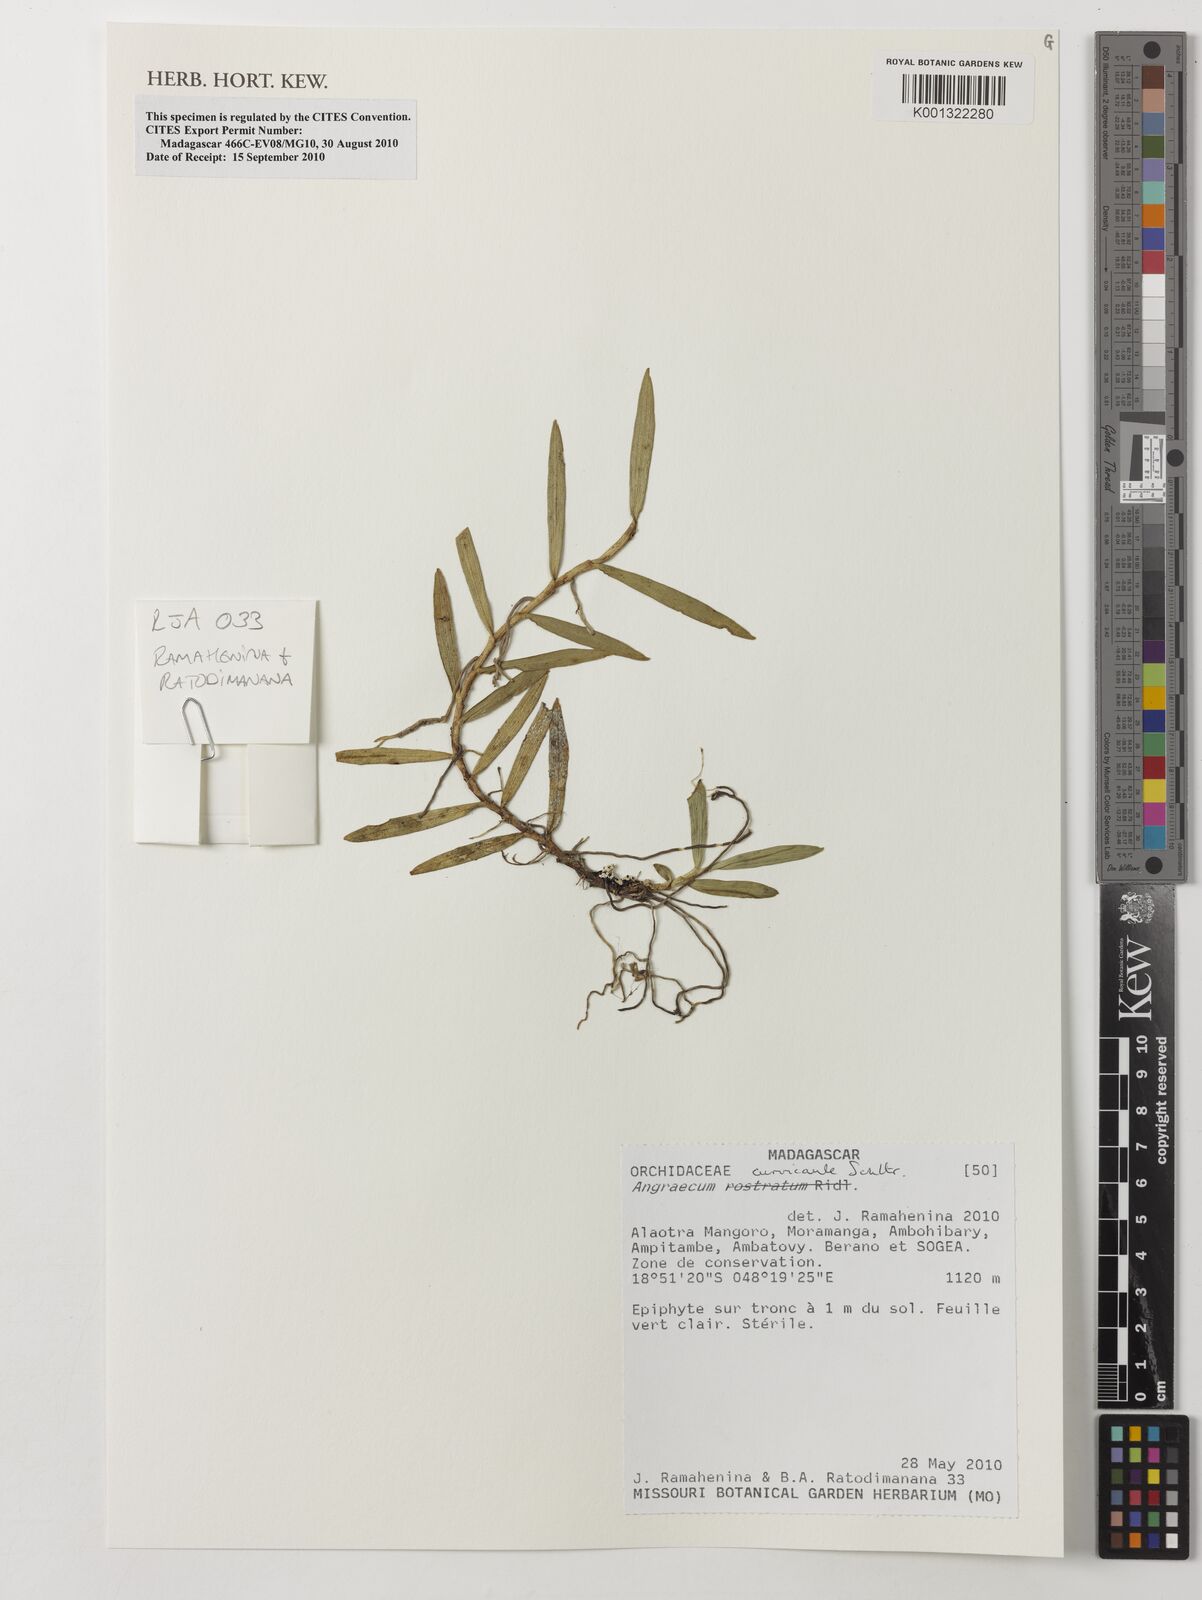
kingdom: Plantae
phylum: Tracheophyta
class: Liliopsida
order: Asparagales
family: Orchidaceae
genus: Angraecum
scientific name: Angraecum curvicaule
